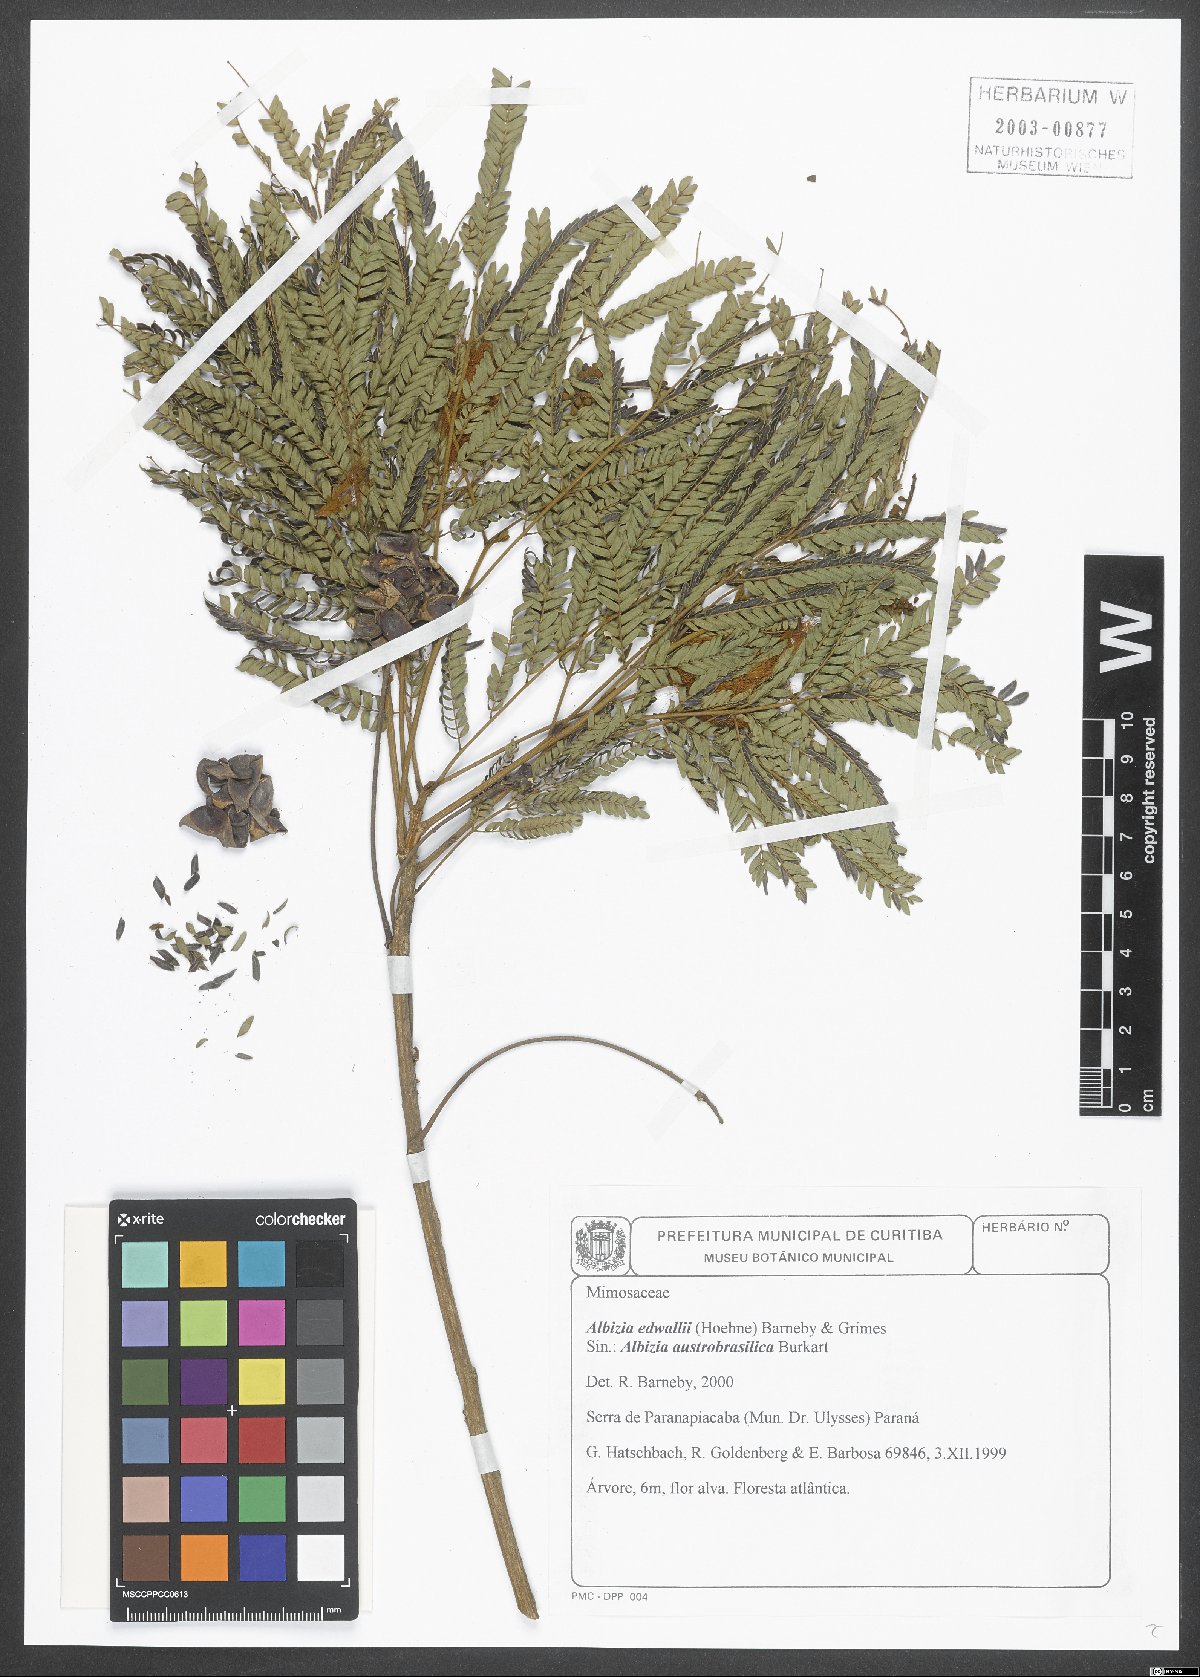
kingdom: Plantae
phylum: Tracheophyta
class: Magnoliopsida
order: Fabales
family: Fabaceae
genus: Albizia
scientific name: Albizia edwallii
